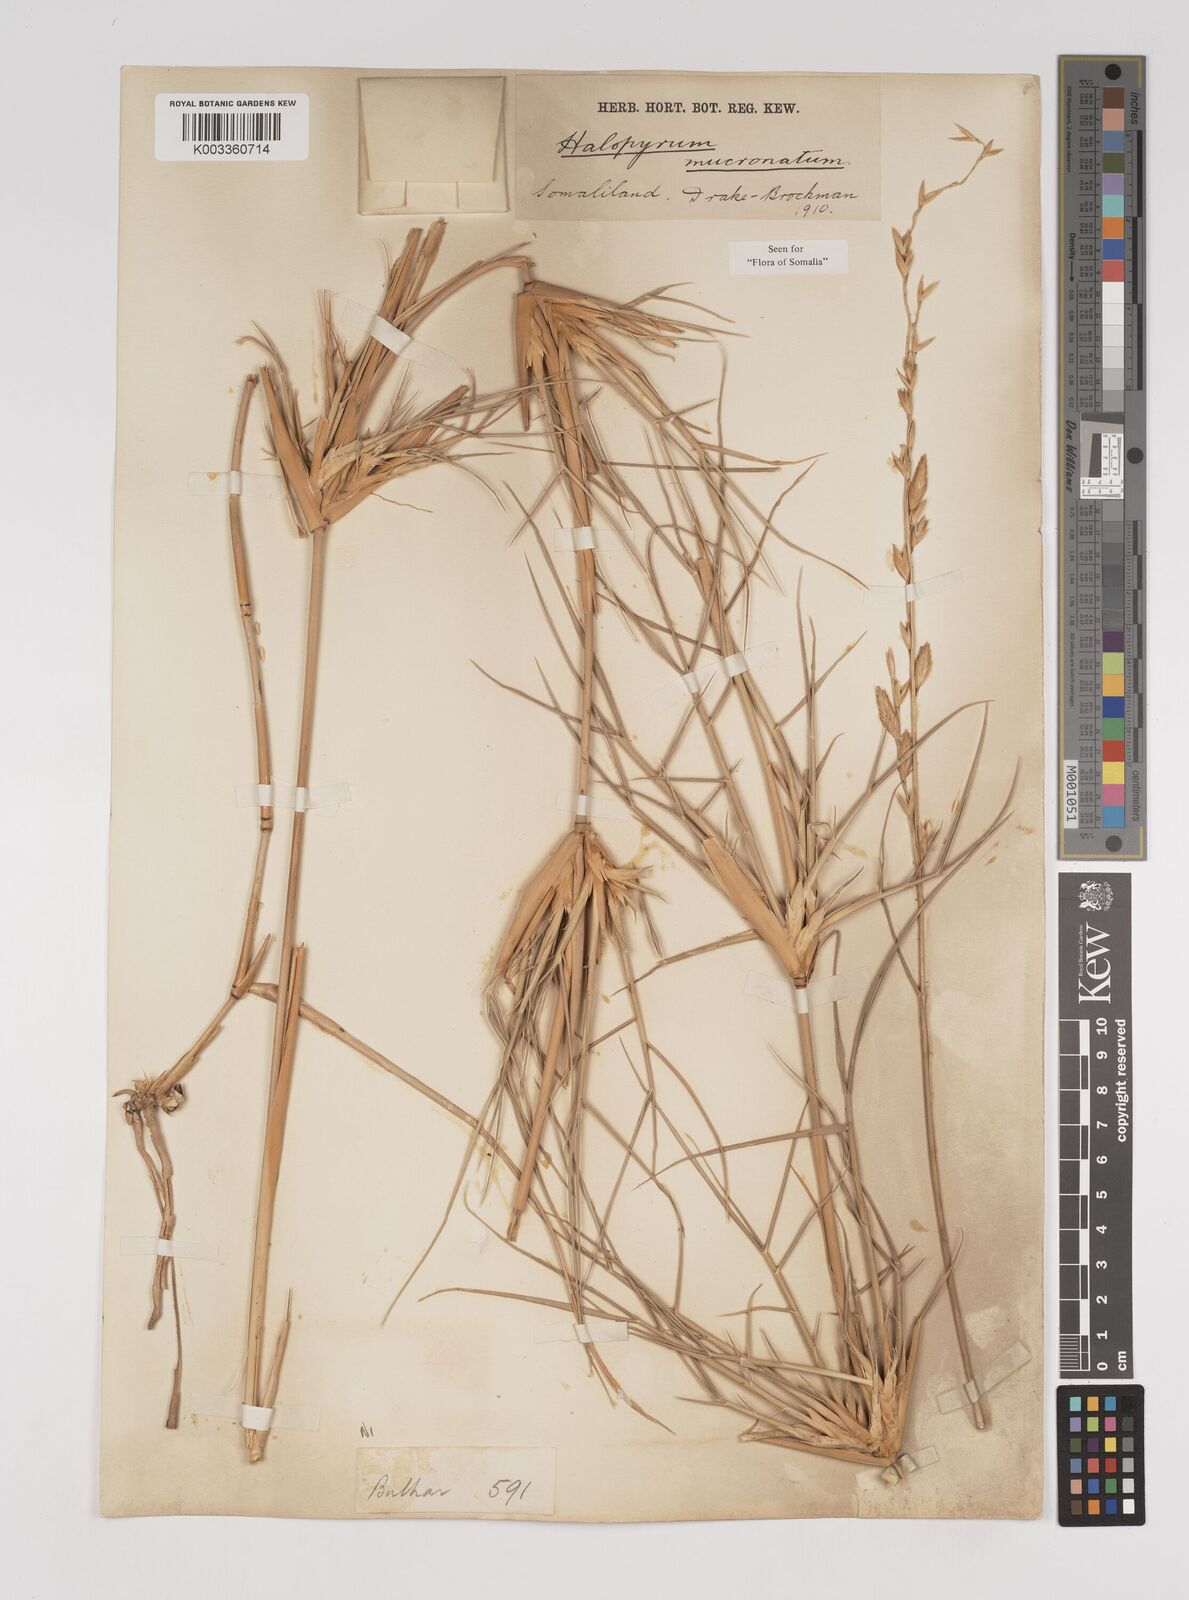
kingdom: Plantae
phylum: Tracheophyta
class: Liliopsida
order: Poales
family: Poaceae
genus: Halopyrum
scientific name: Halopyrum mucronatum
